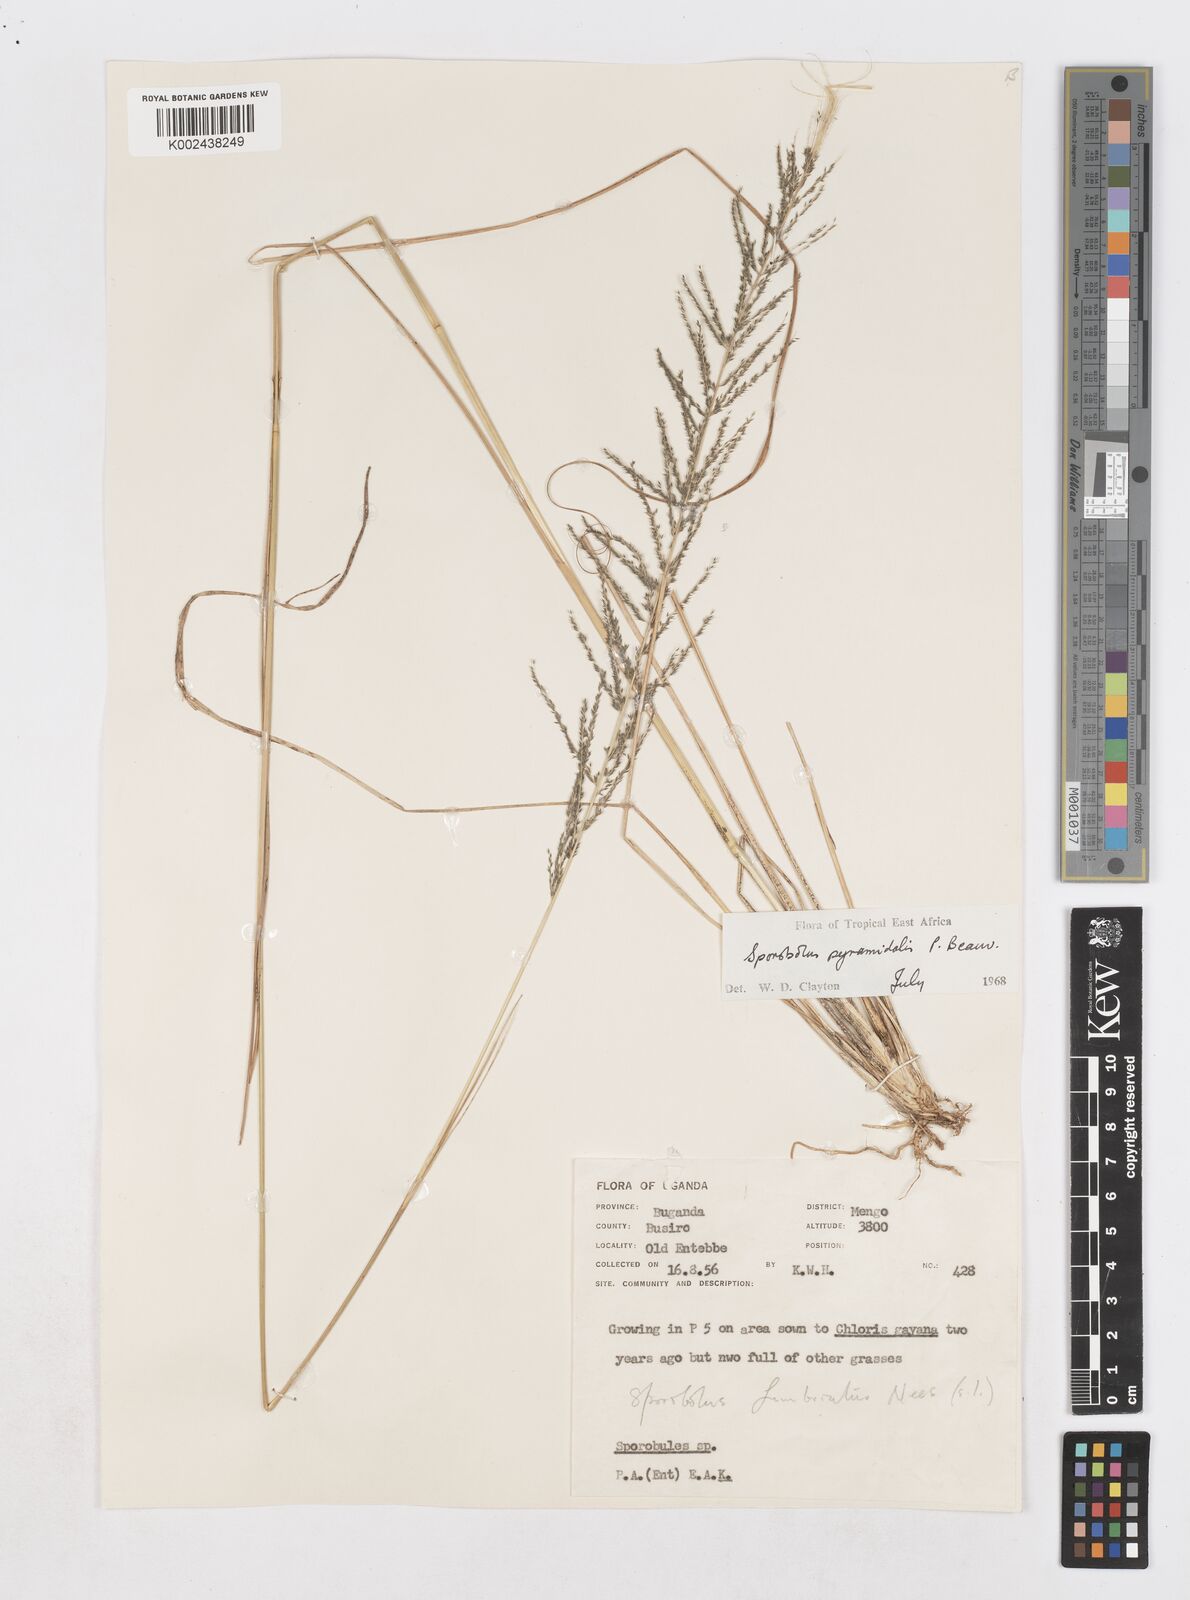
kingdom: Plantae
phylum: Tracheophyta
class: Liliopsida
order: Poales
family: Poaceae
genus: Sporobolus
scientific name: Sporobolus pyramidalis
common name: West indian dropseed
